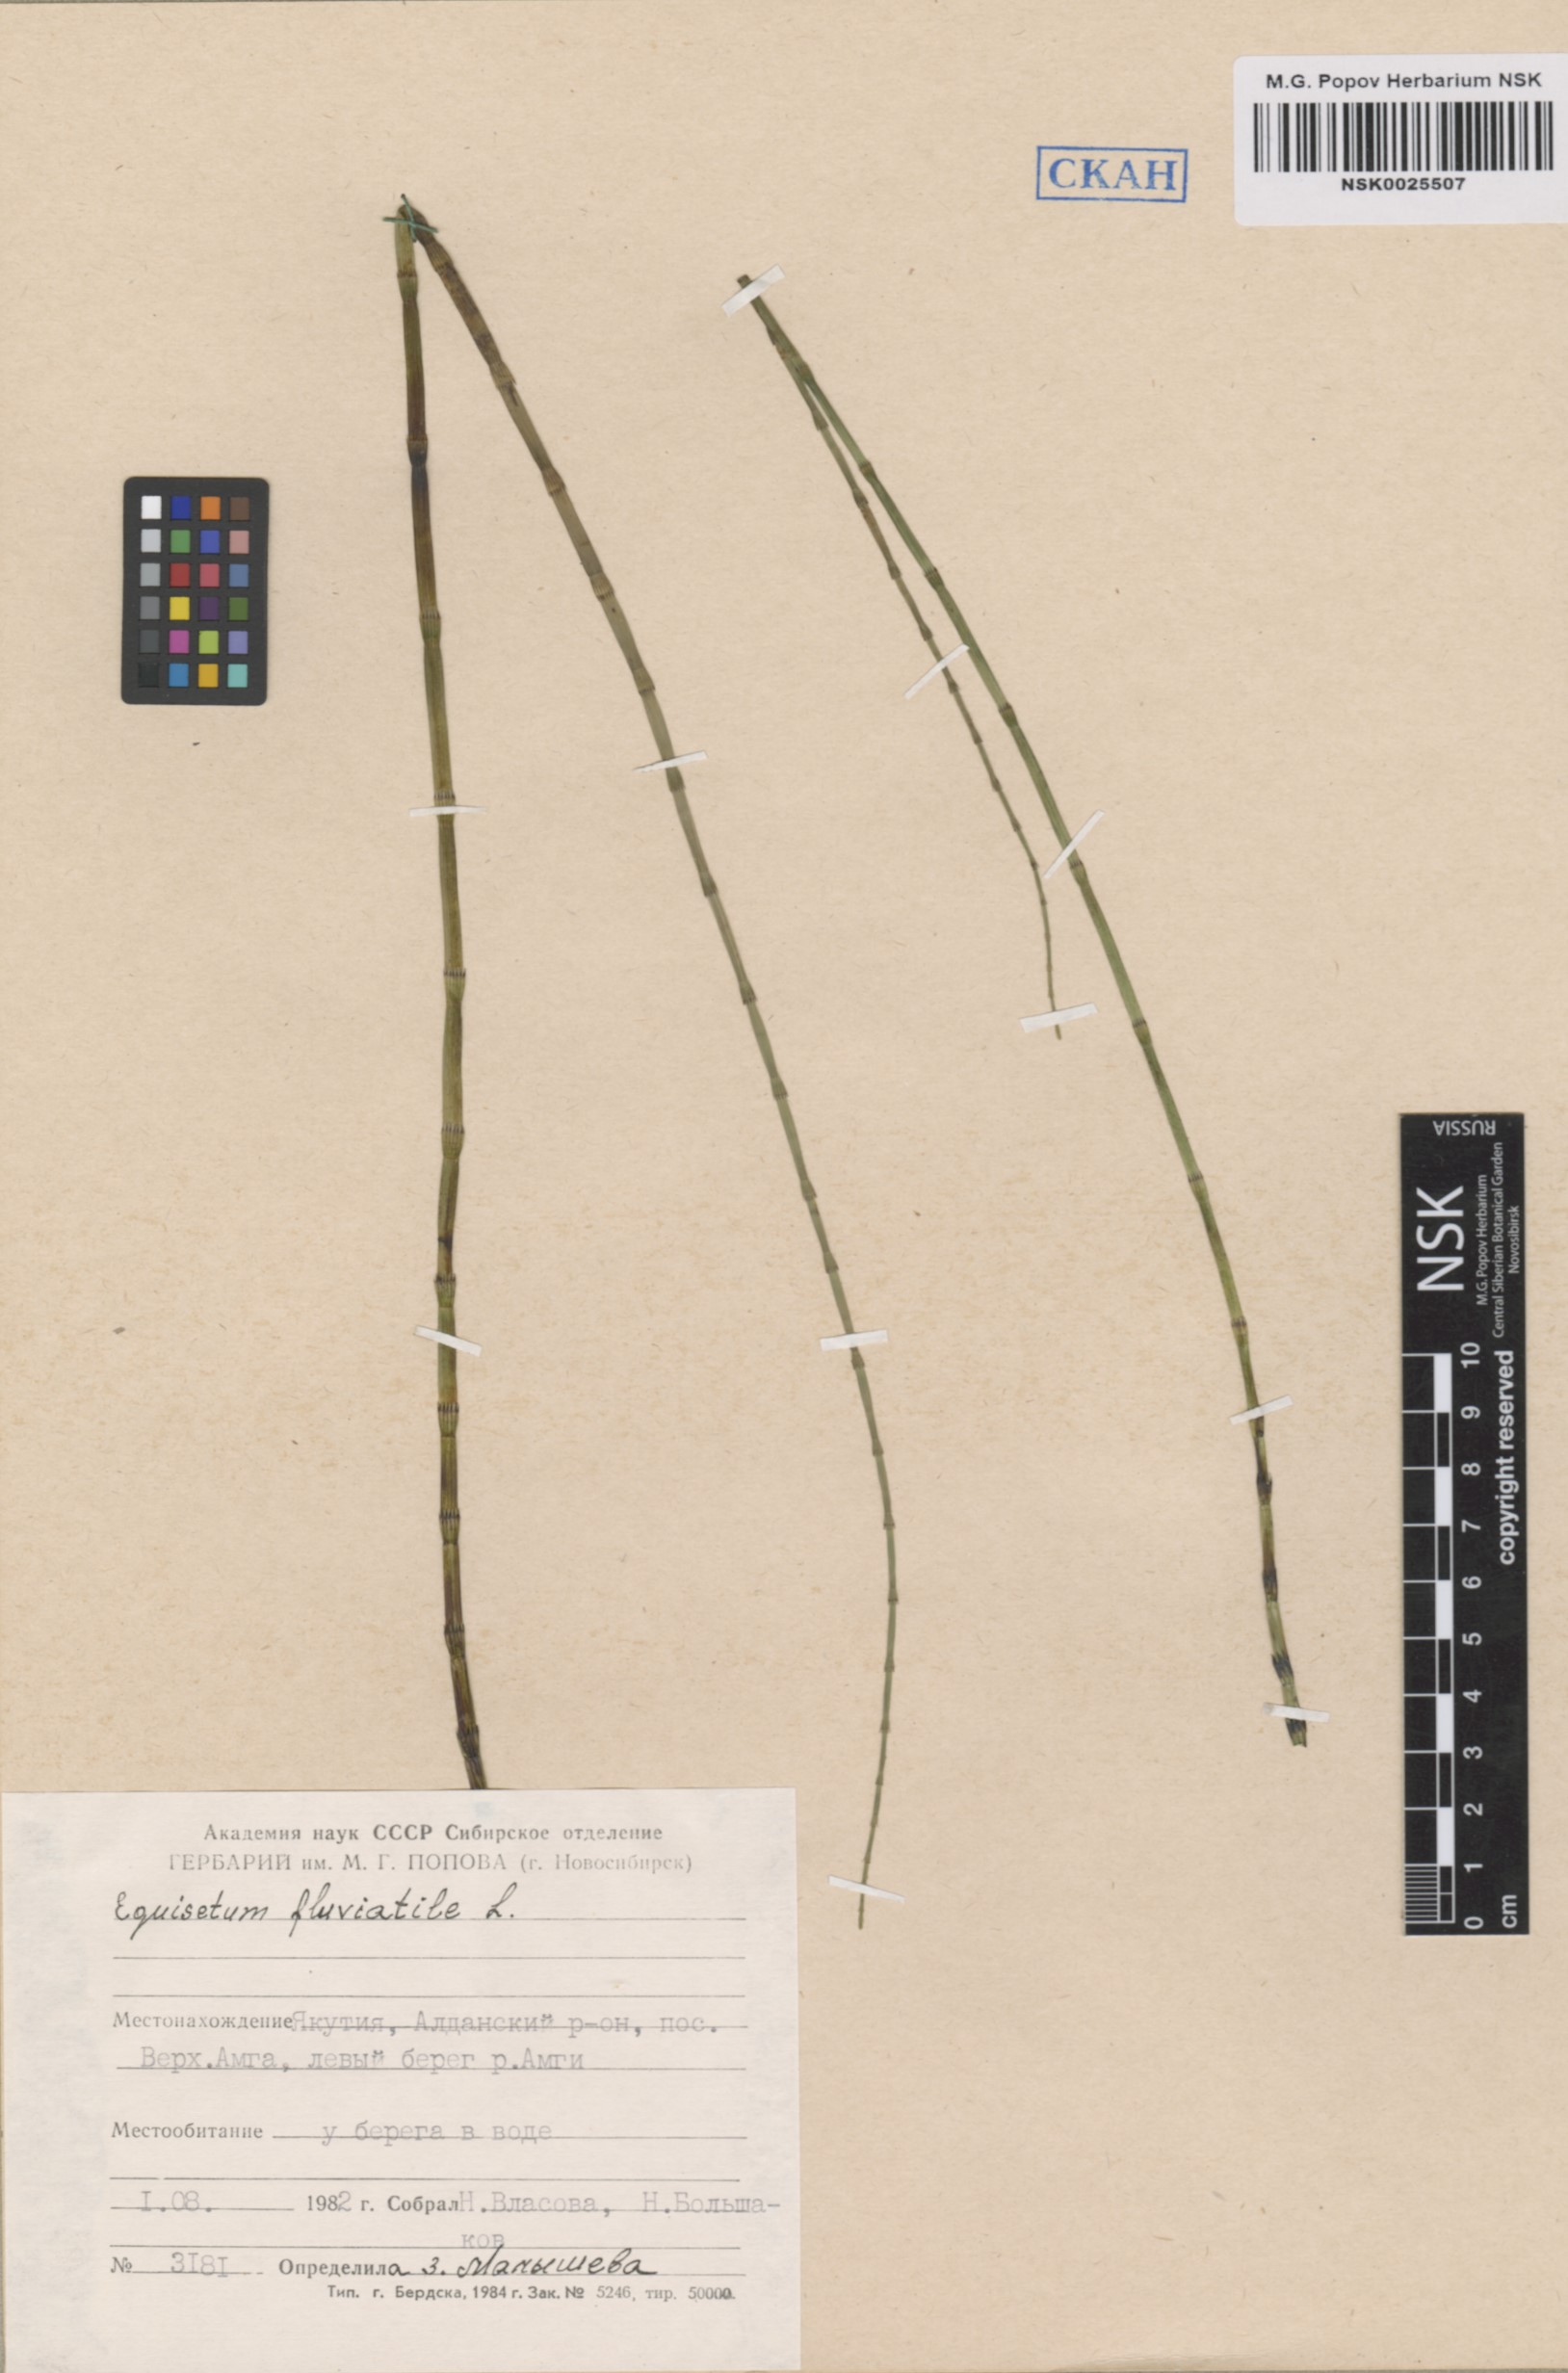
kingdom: Plantae
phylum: Tracheophyta
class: Polypodiopsida
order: Equisetales
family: Equisetaceae
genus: Equisetum
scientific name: Equisetum fluviatile
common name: Water horsetail
